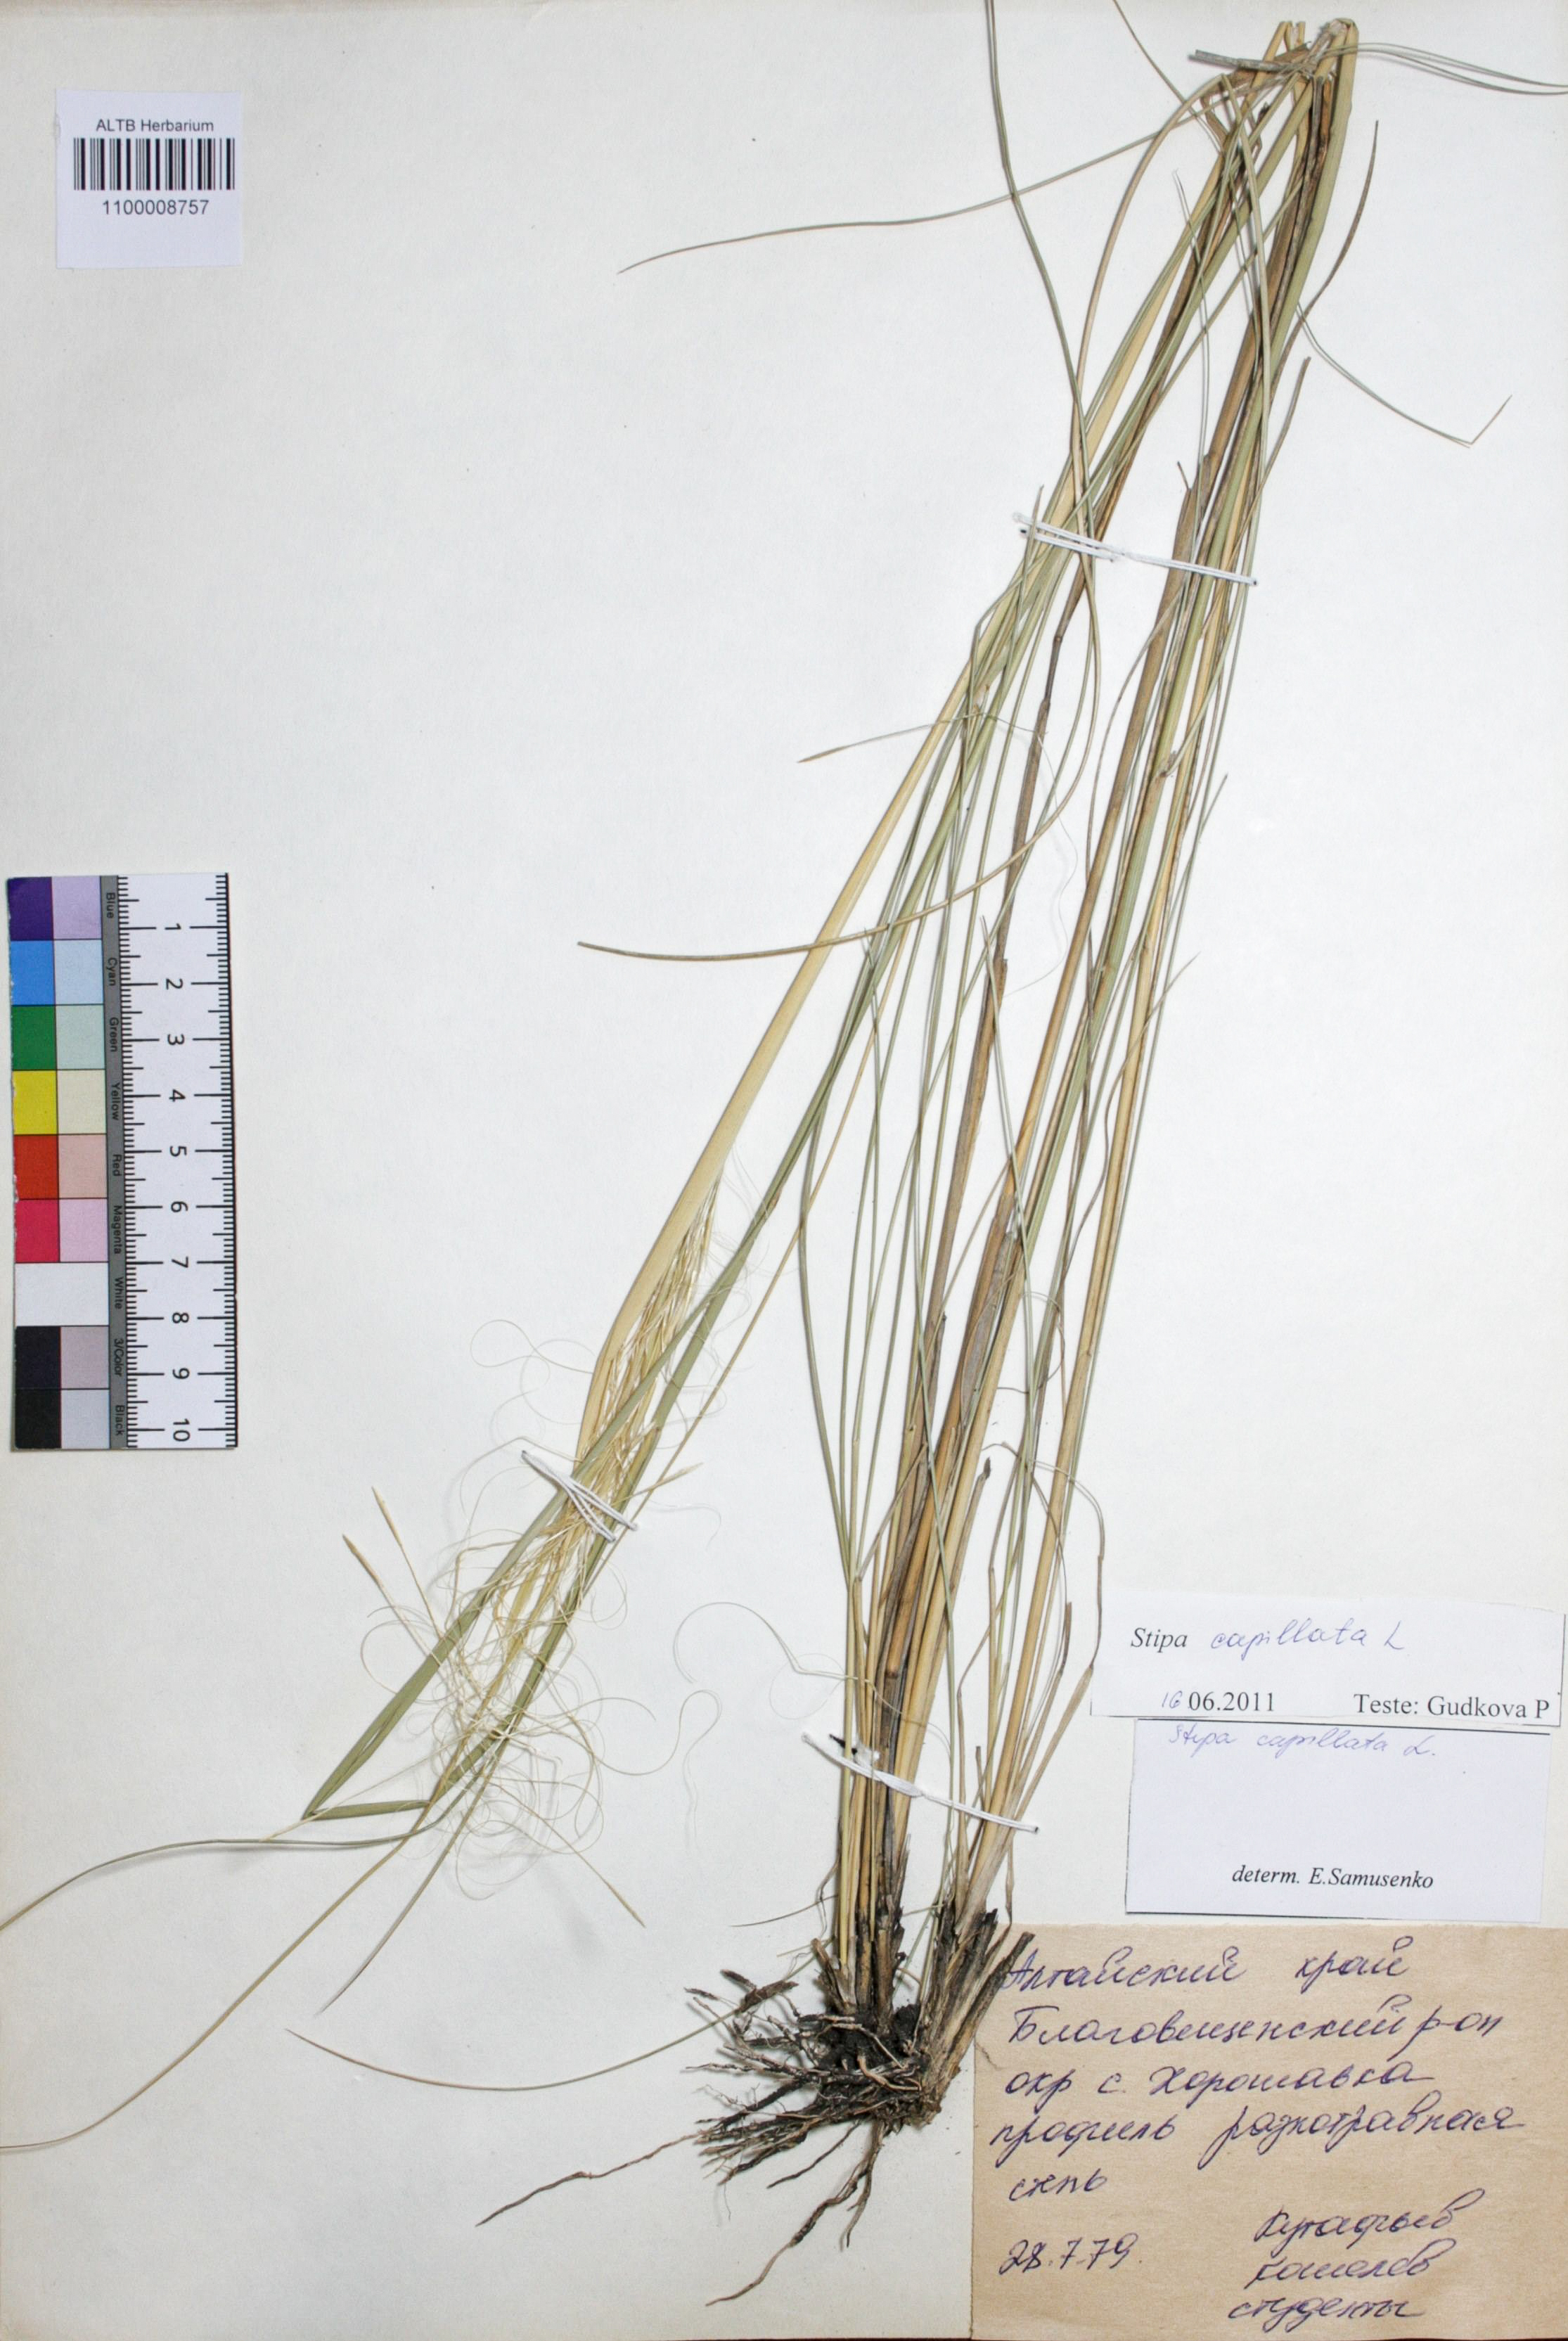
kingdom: Plantae
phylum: Tracheophyta
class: Liliopsida
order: Poales
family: Poaceae
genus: Stipa
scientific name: Stipa capillata
